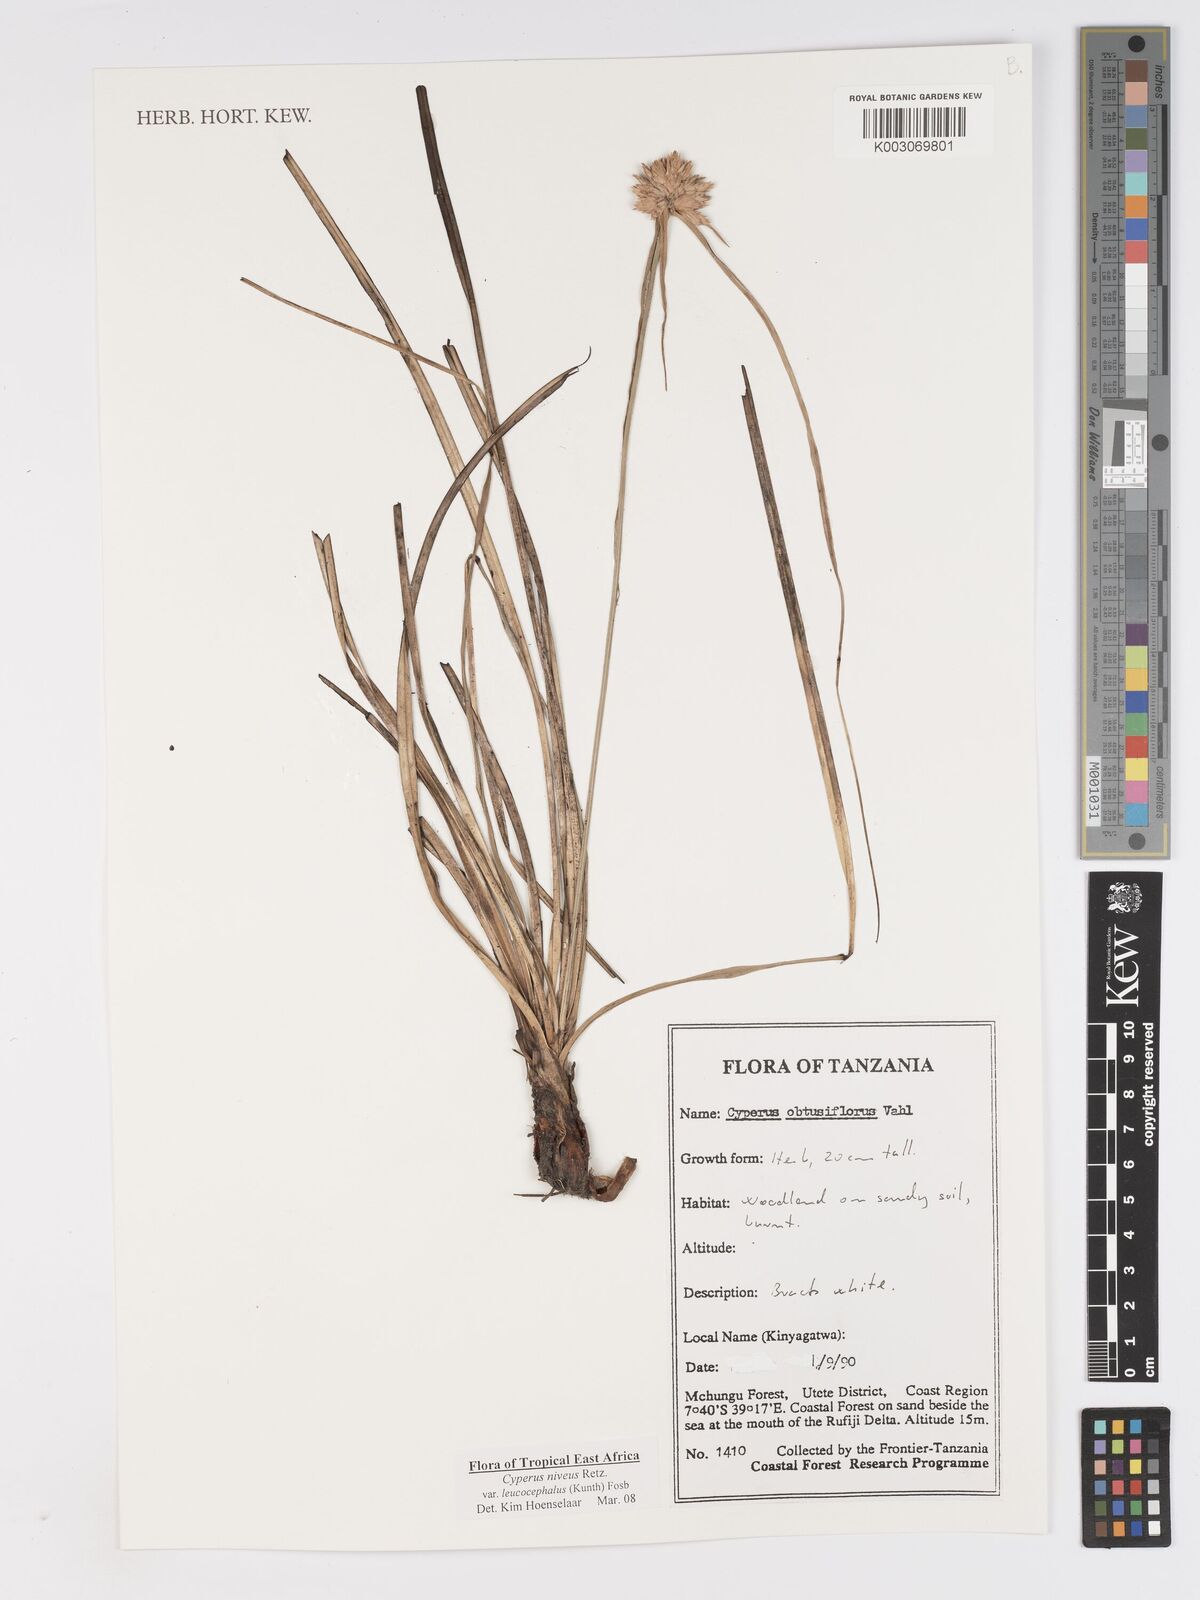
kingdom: Plantae
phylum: Tracheophyta
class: Liliopsida
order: Poales
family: Cyperaceae
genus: Cyperus
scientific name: Cyperus niveus
